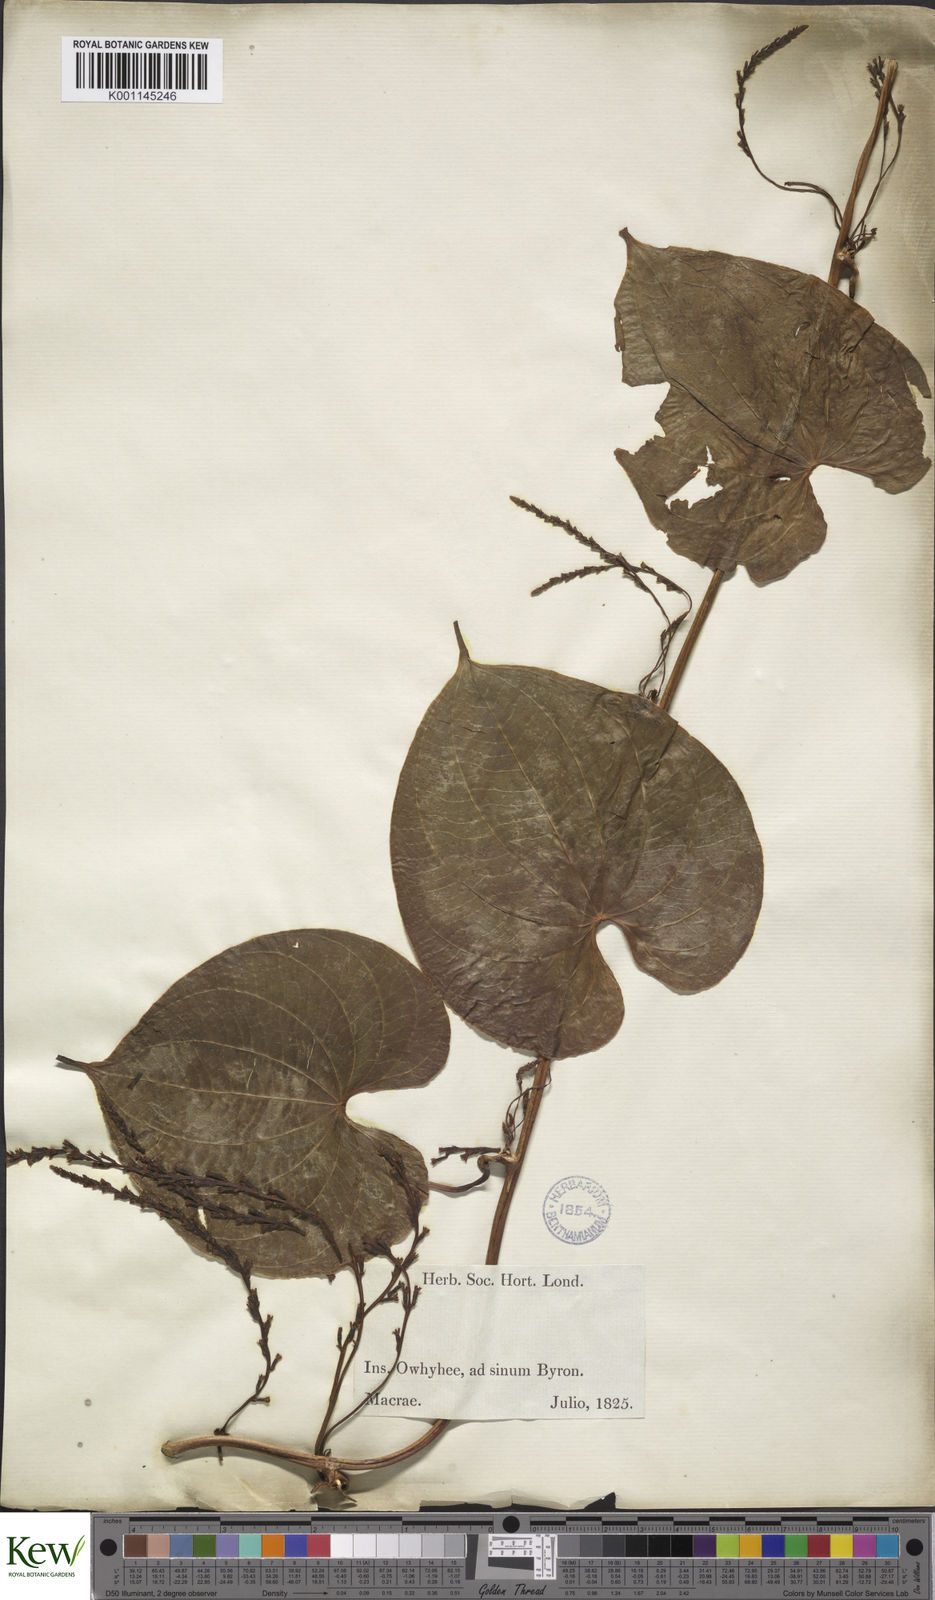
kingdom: Plantae
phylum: Tracheophyta
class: Liliopsida
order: Dioscoreales
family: Dioscoreaceae
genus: Dioscorea
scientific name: Dioscorea bulbifera
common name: Air yam
